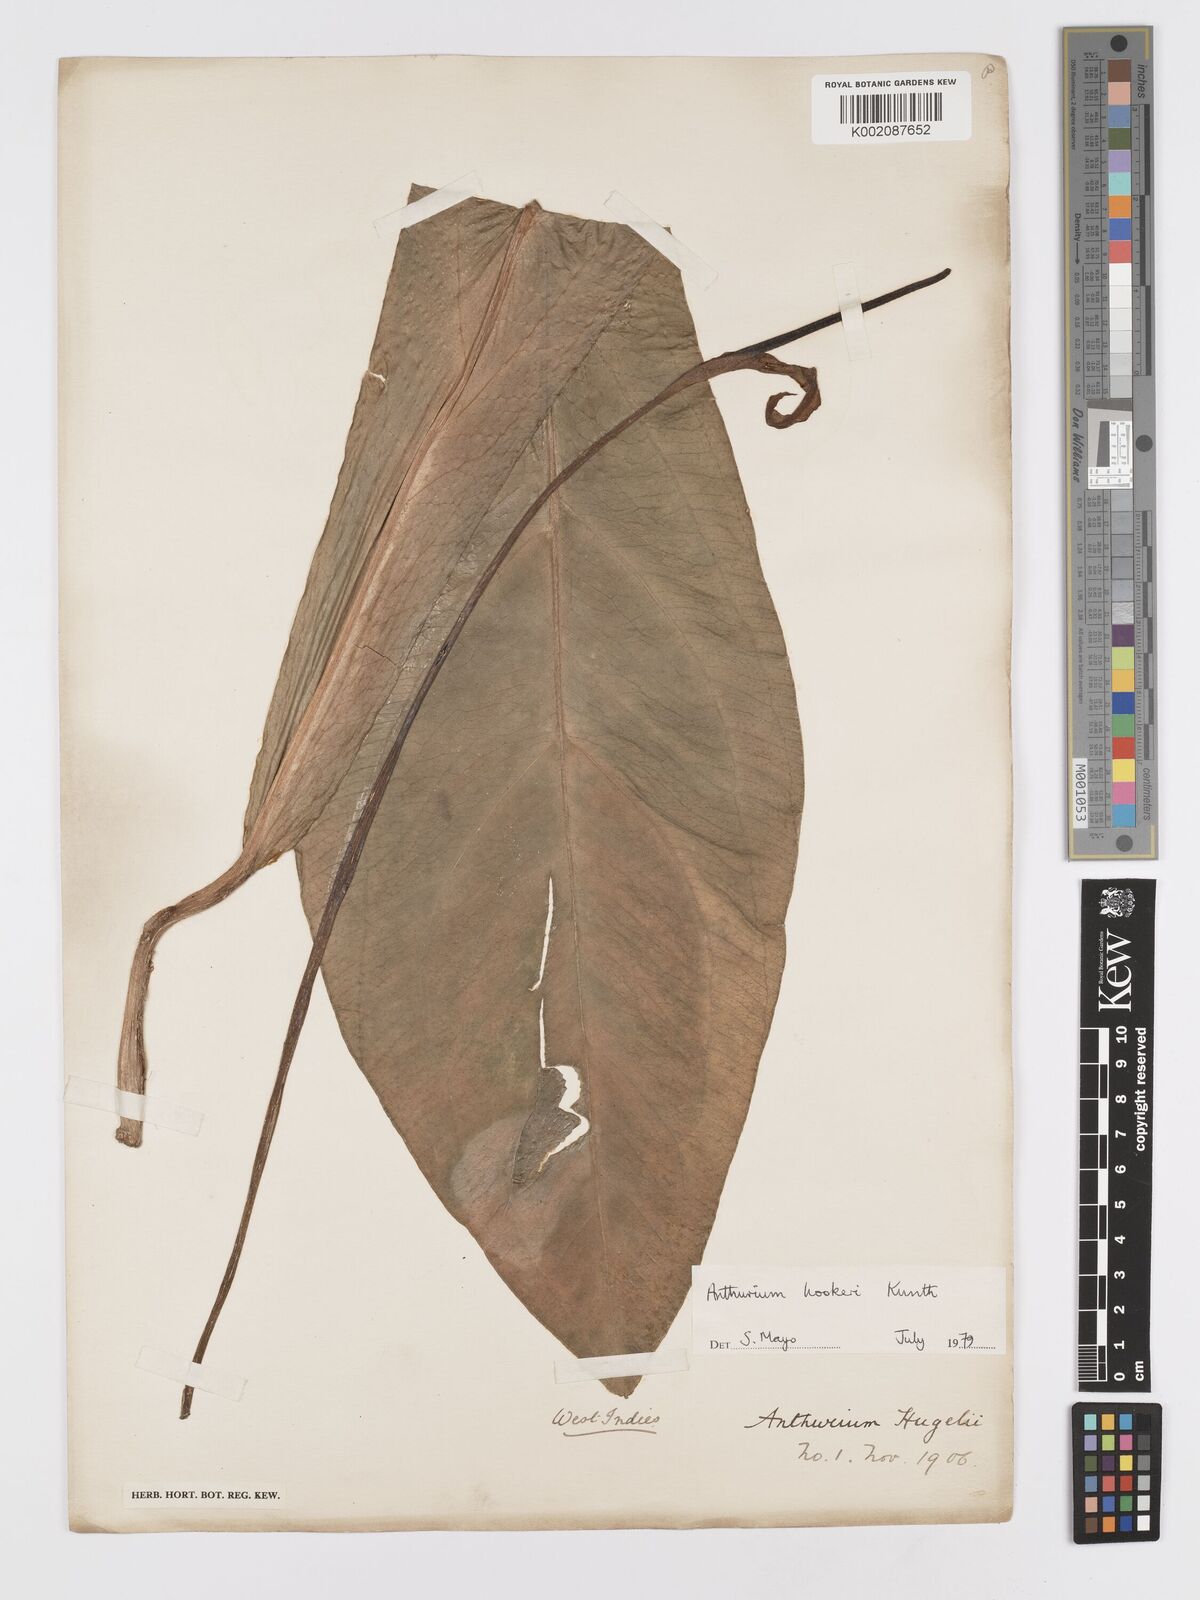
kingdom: Plantae
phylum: Tracheophyta
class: Liliopsida
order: Alismatales
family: Araceae
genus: Anthurium
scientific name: Anthurium hookeri
